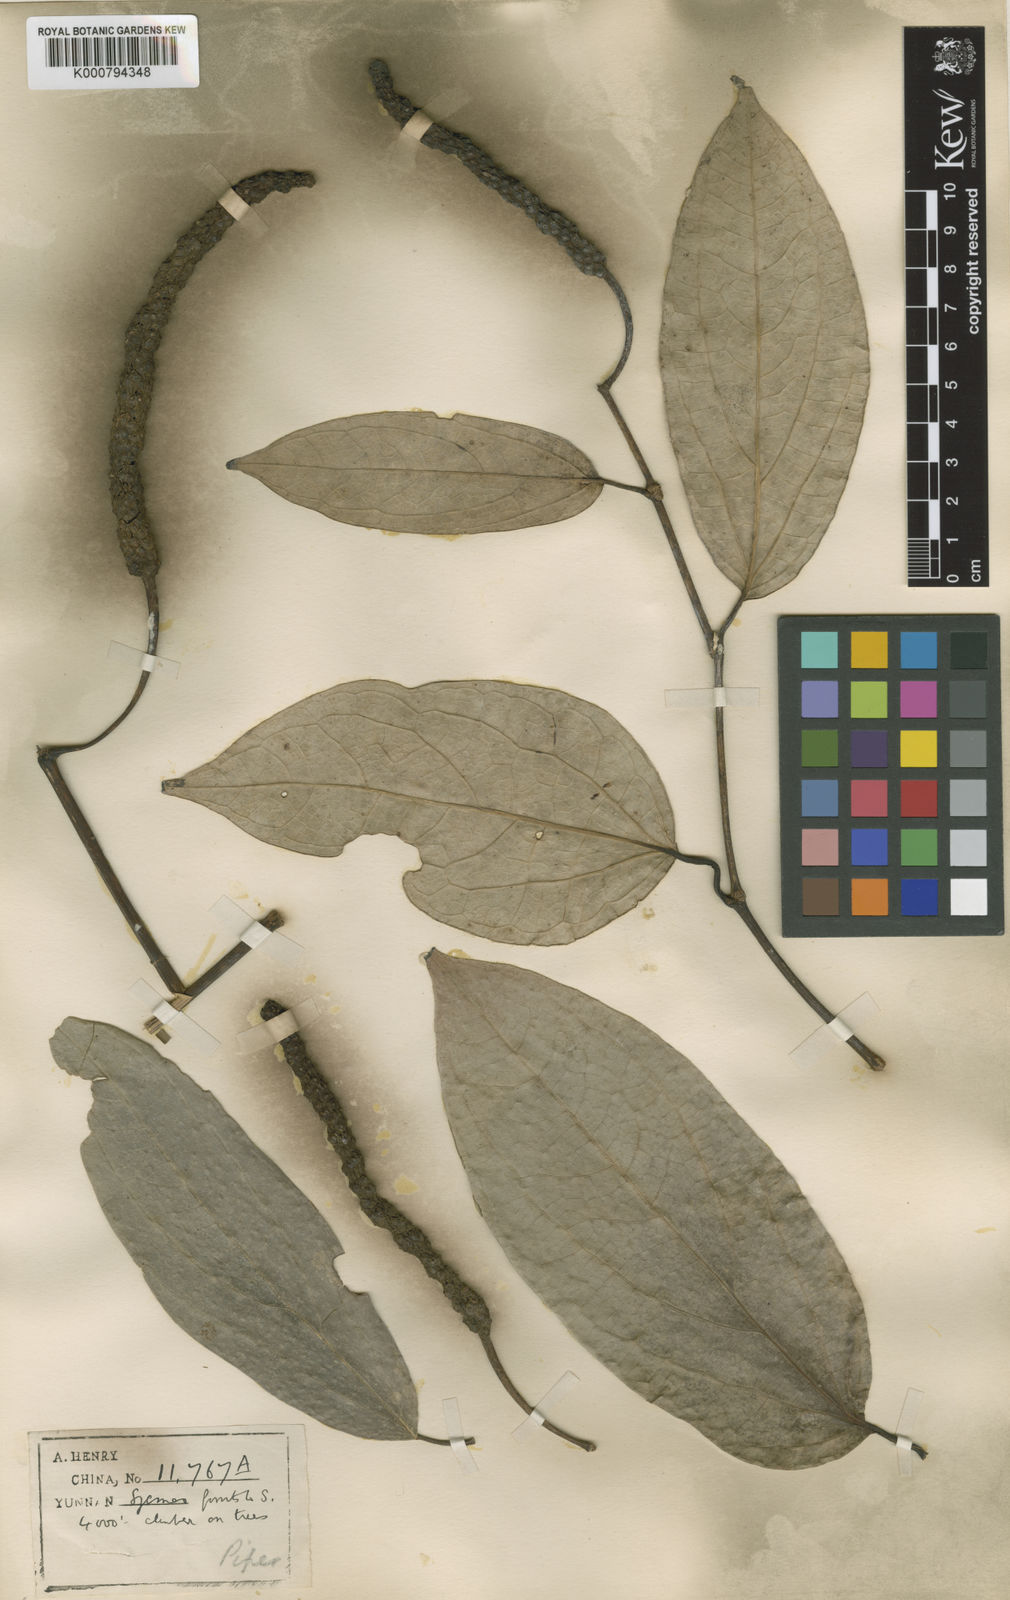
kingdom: Plantae
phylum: Tracheophyta
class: Magnoliopsida
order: Piperales
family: Piperaceae
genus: Piper
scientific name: Piper philippinum
